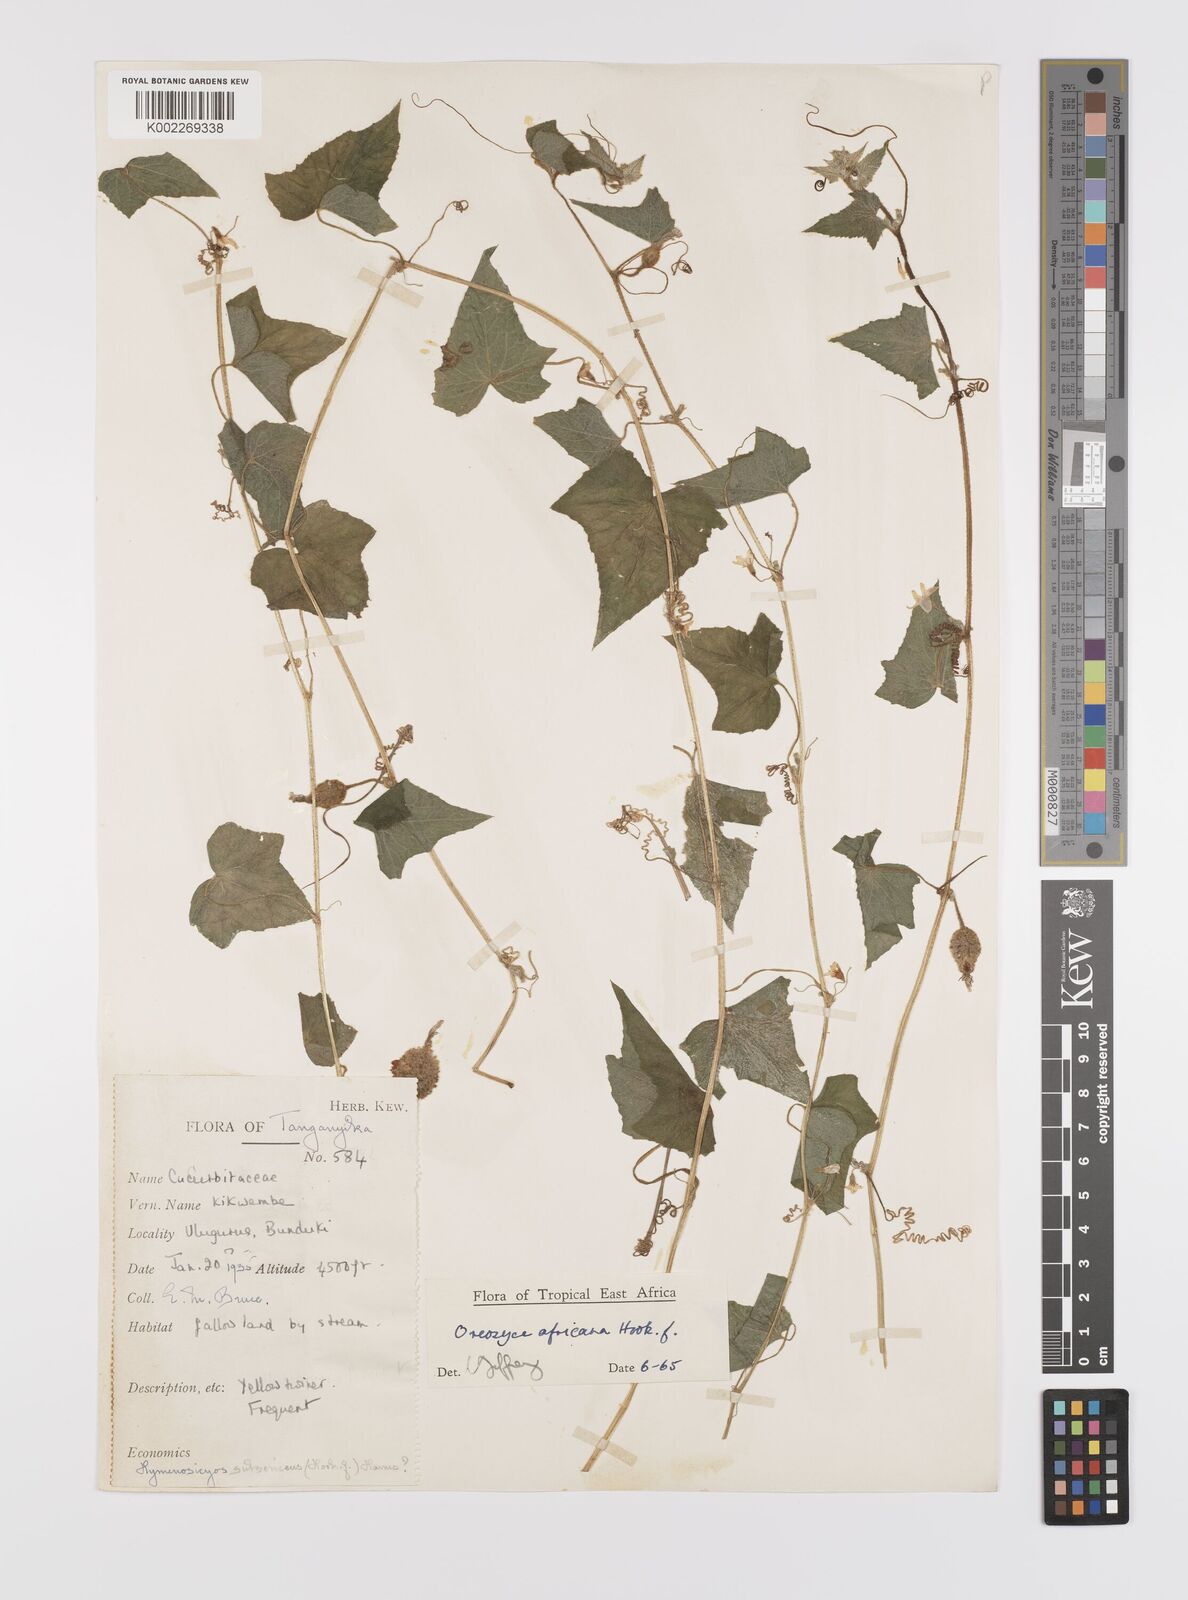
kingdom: Plantae
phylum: Tracheophyta
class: Magnoliopsida
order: Cucurbitales
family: Cucurbitaceae
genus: Cucumis
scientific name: Cucumis oreosyce
